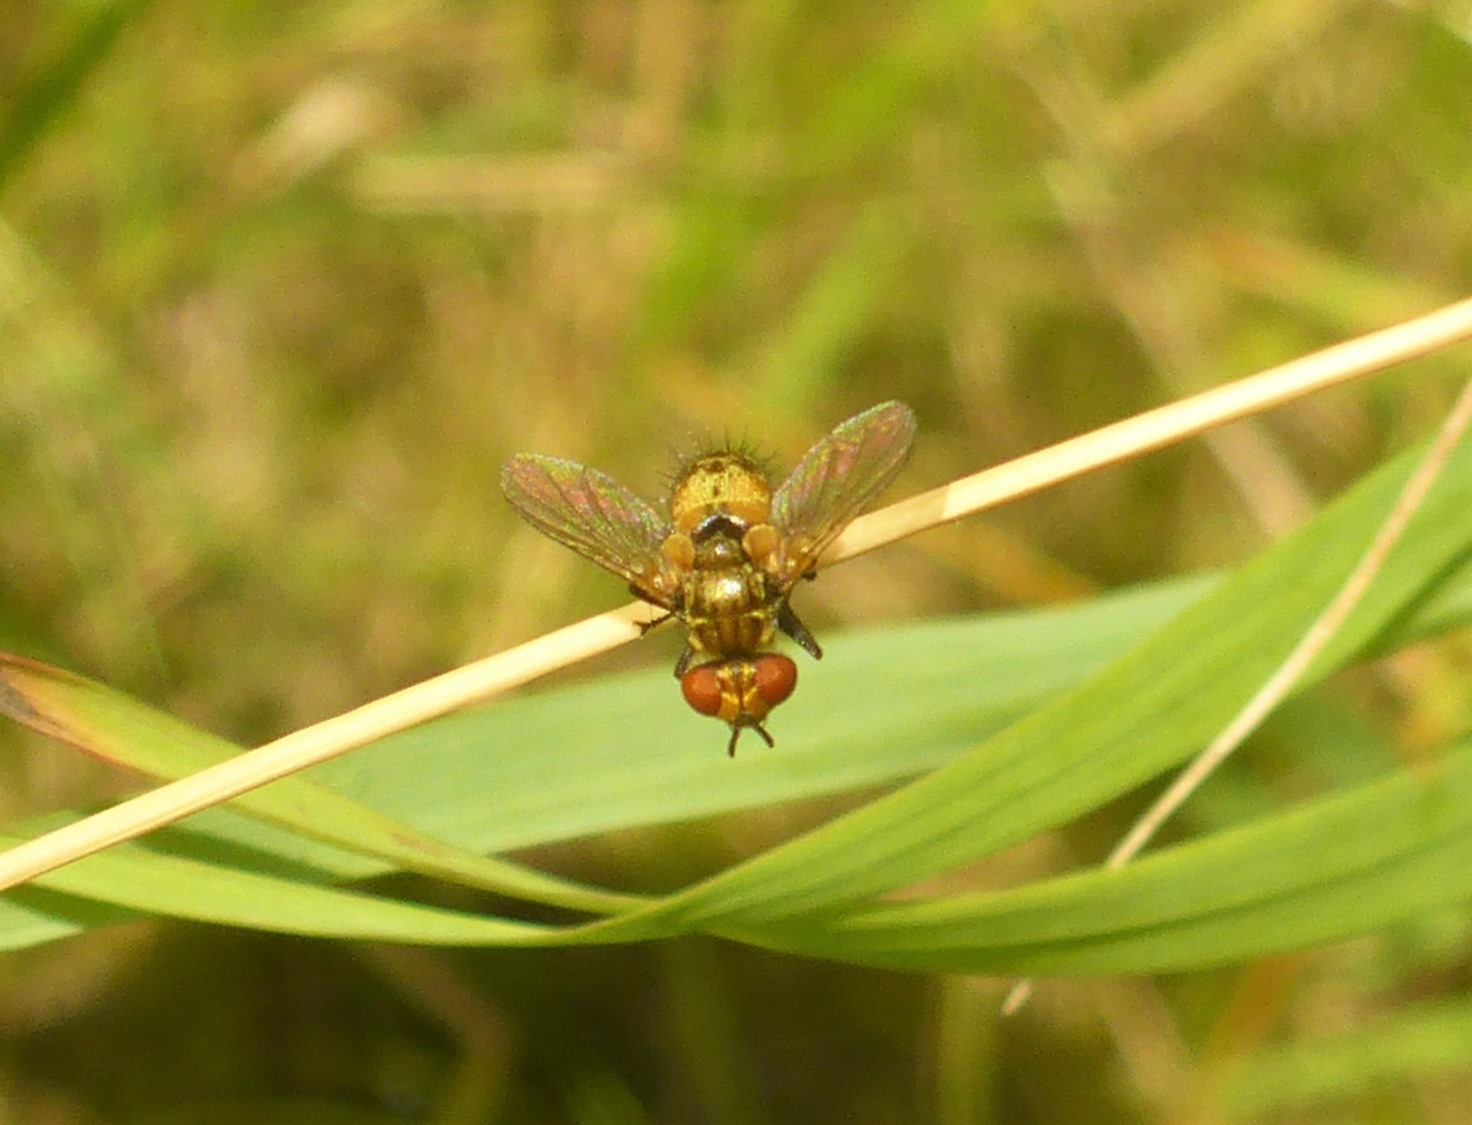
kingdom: Animalia
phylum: Arthropoda
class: Insecta
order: Diptera
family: Tachinidae
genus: Eliozeta
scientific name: Eliozeta pellucens
